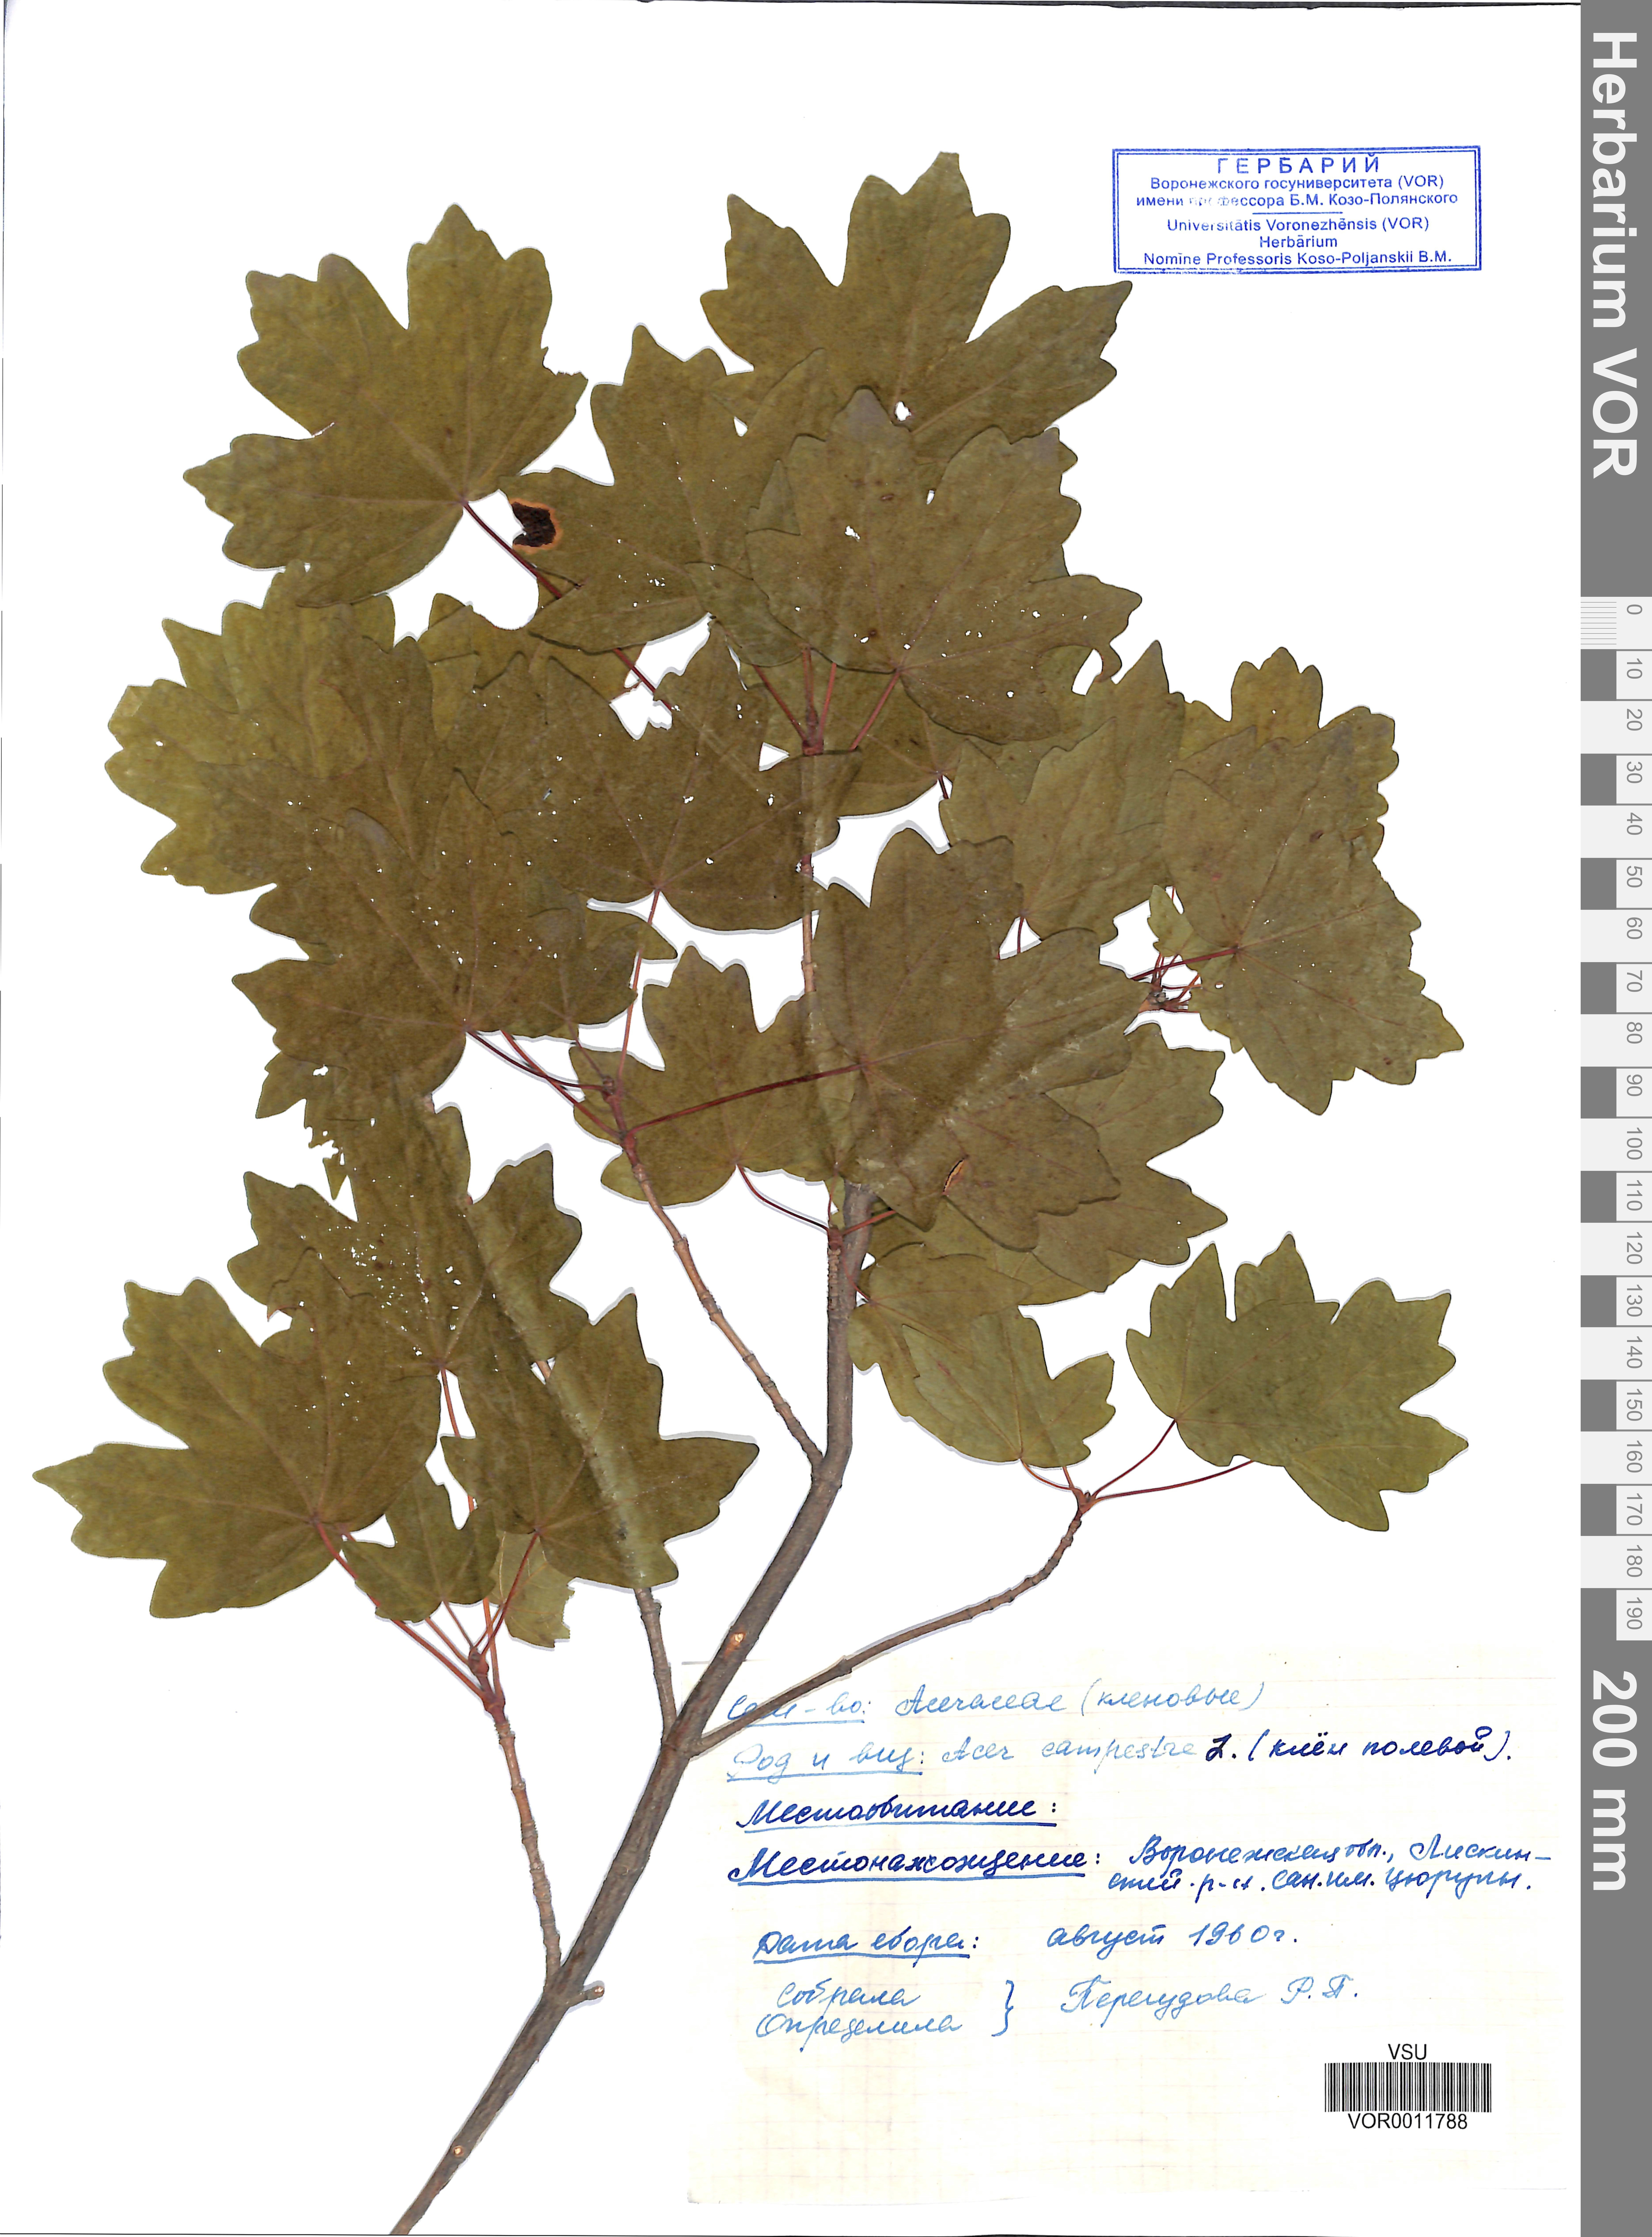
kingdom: Plantae
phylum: Tracheophyta
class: Magnoliopsida
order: Sapindales
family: Sapindaceae
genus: Acer
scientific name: Acer campestre
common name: Field maple
